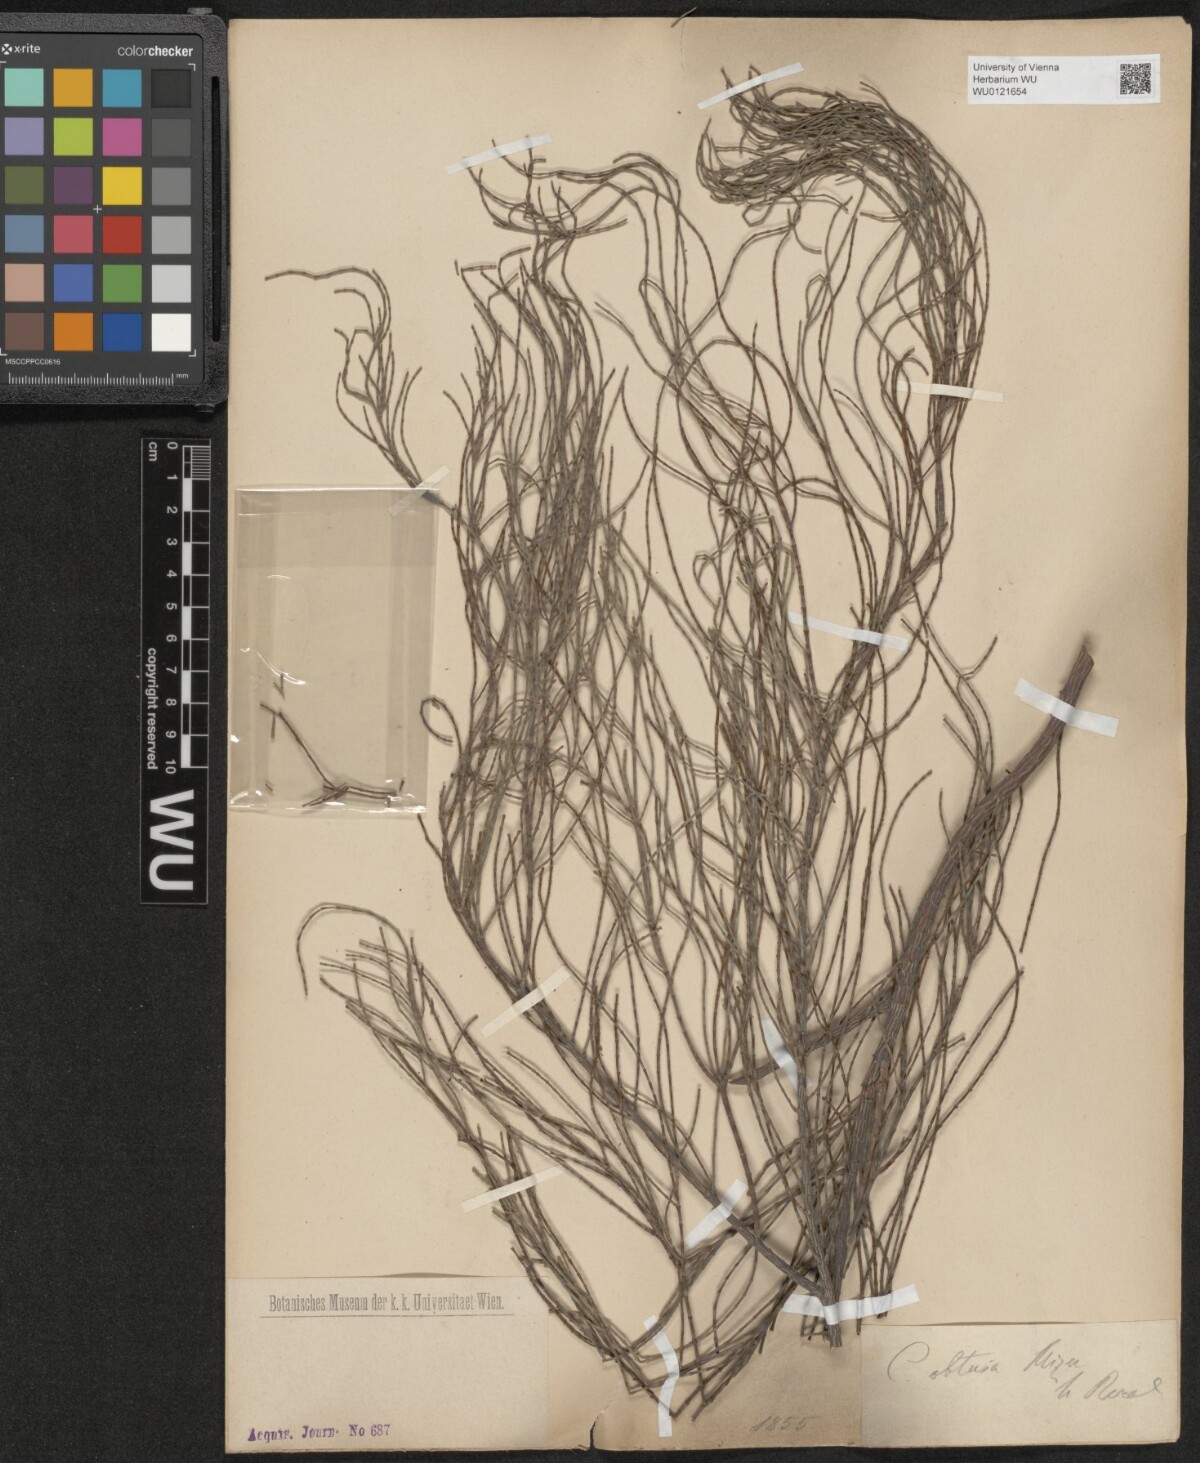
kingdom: Plantae
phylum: Tracheophyta
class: Magnoliopsida
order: Fagales
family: Casuarinaceae
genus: Casuarina
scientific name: Casuarina glauca
